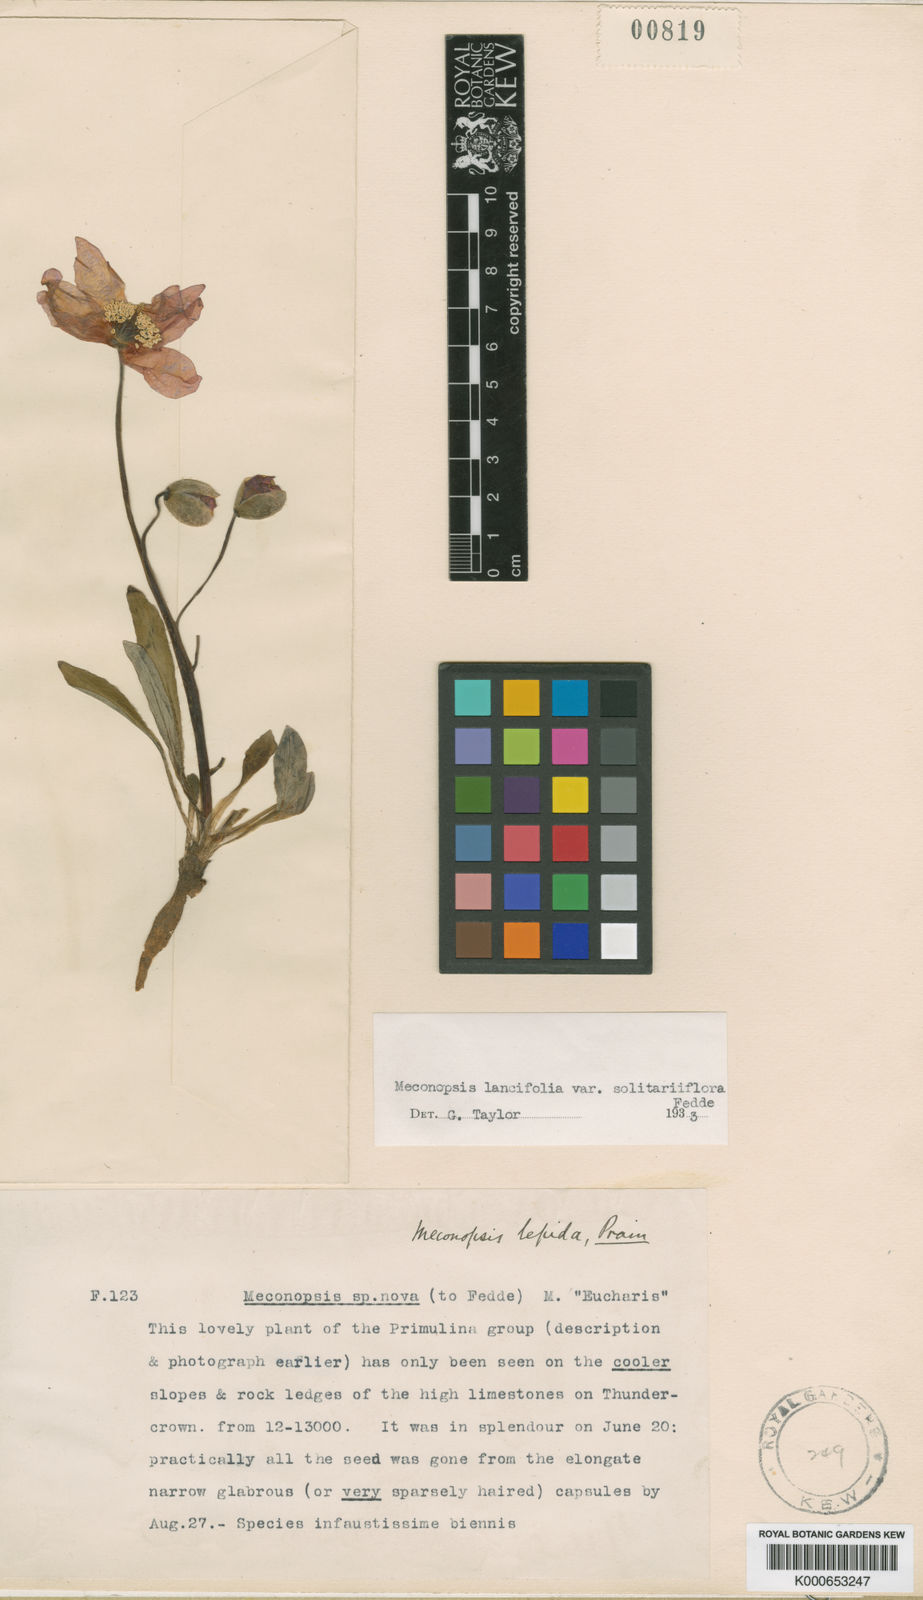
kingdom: Plantae
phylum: Tracheophyta
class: Magnoliopsida
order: Ranunculales
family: Papaveraceae
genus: Meconopsis
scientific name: Meconopsis lancifolia
